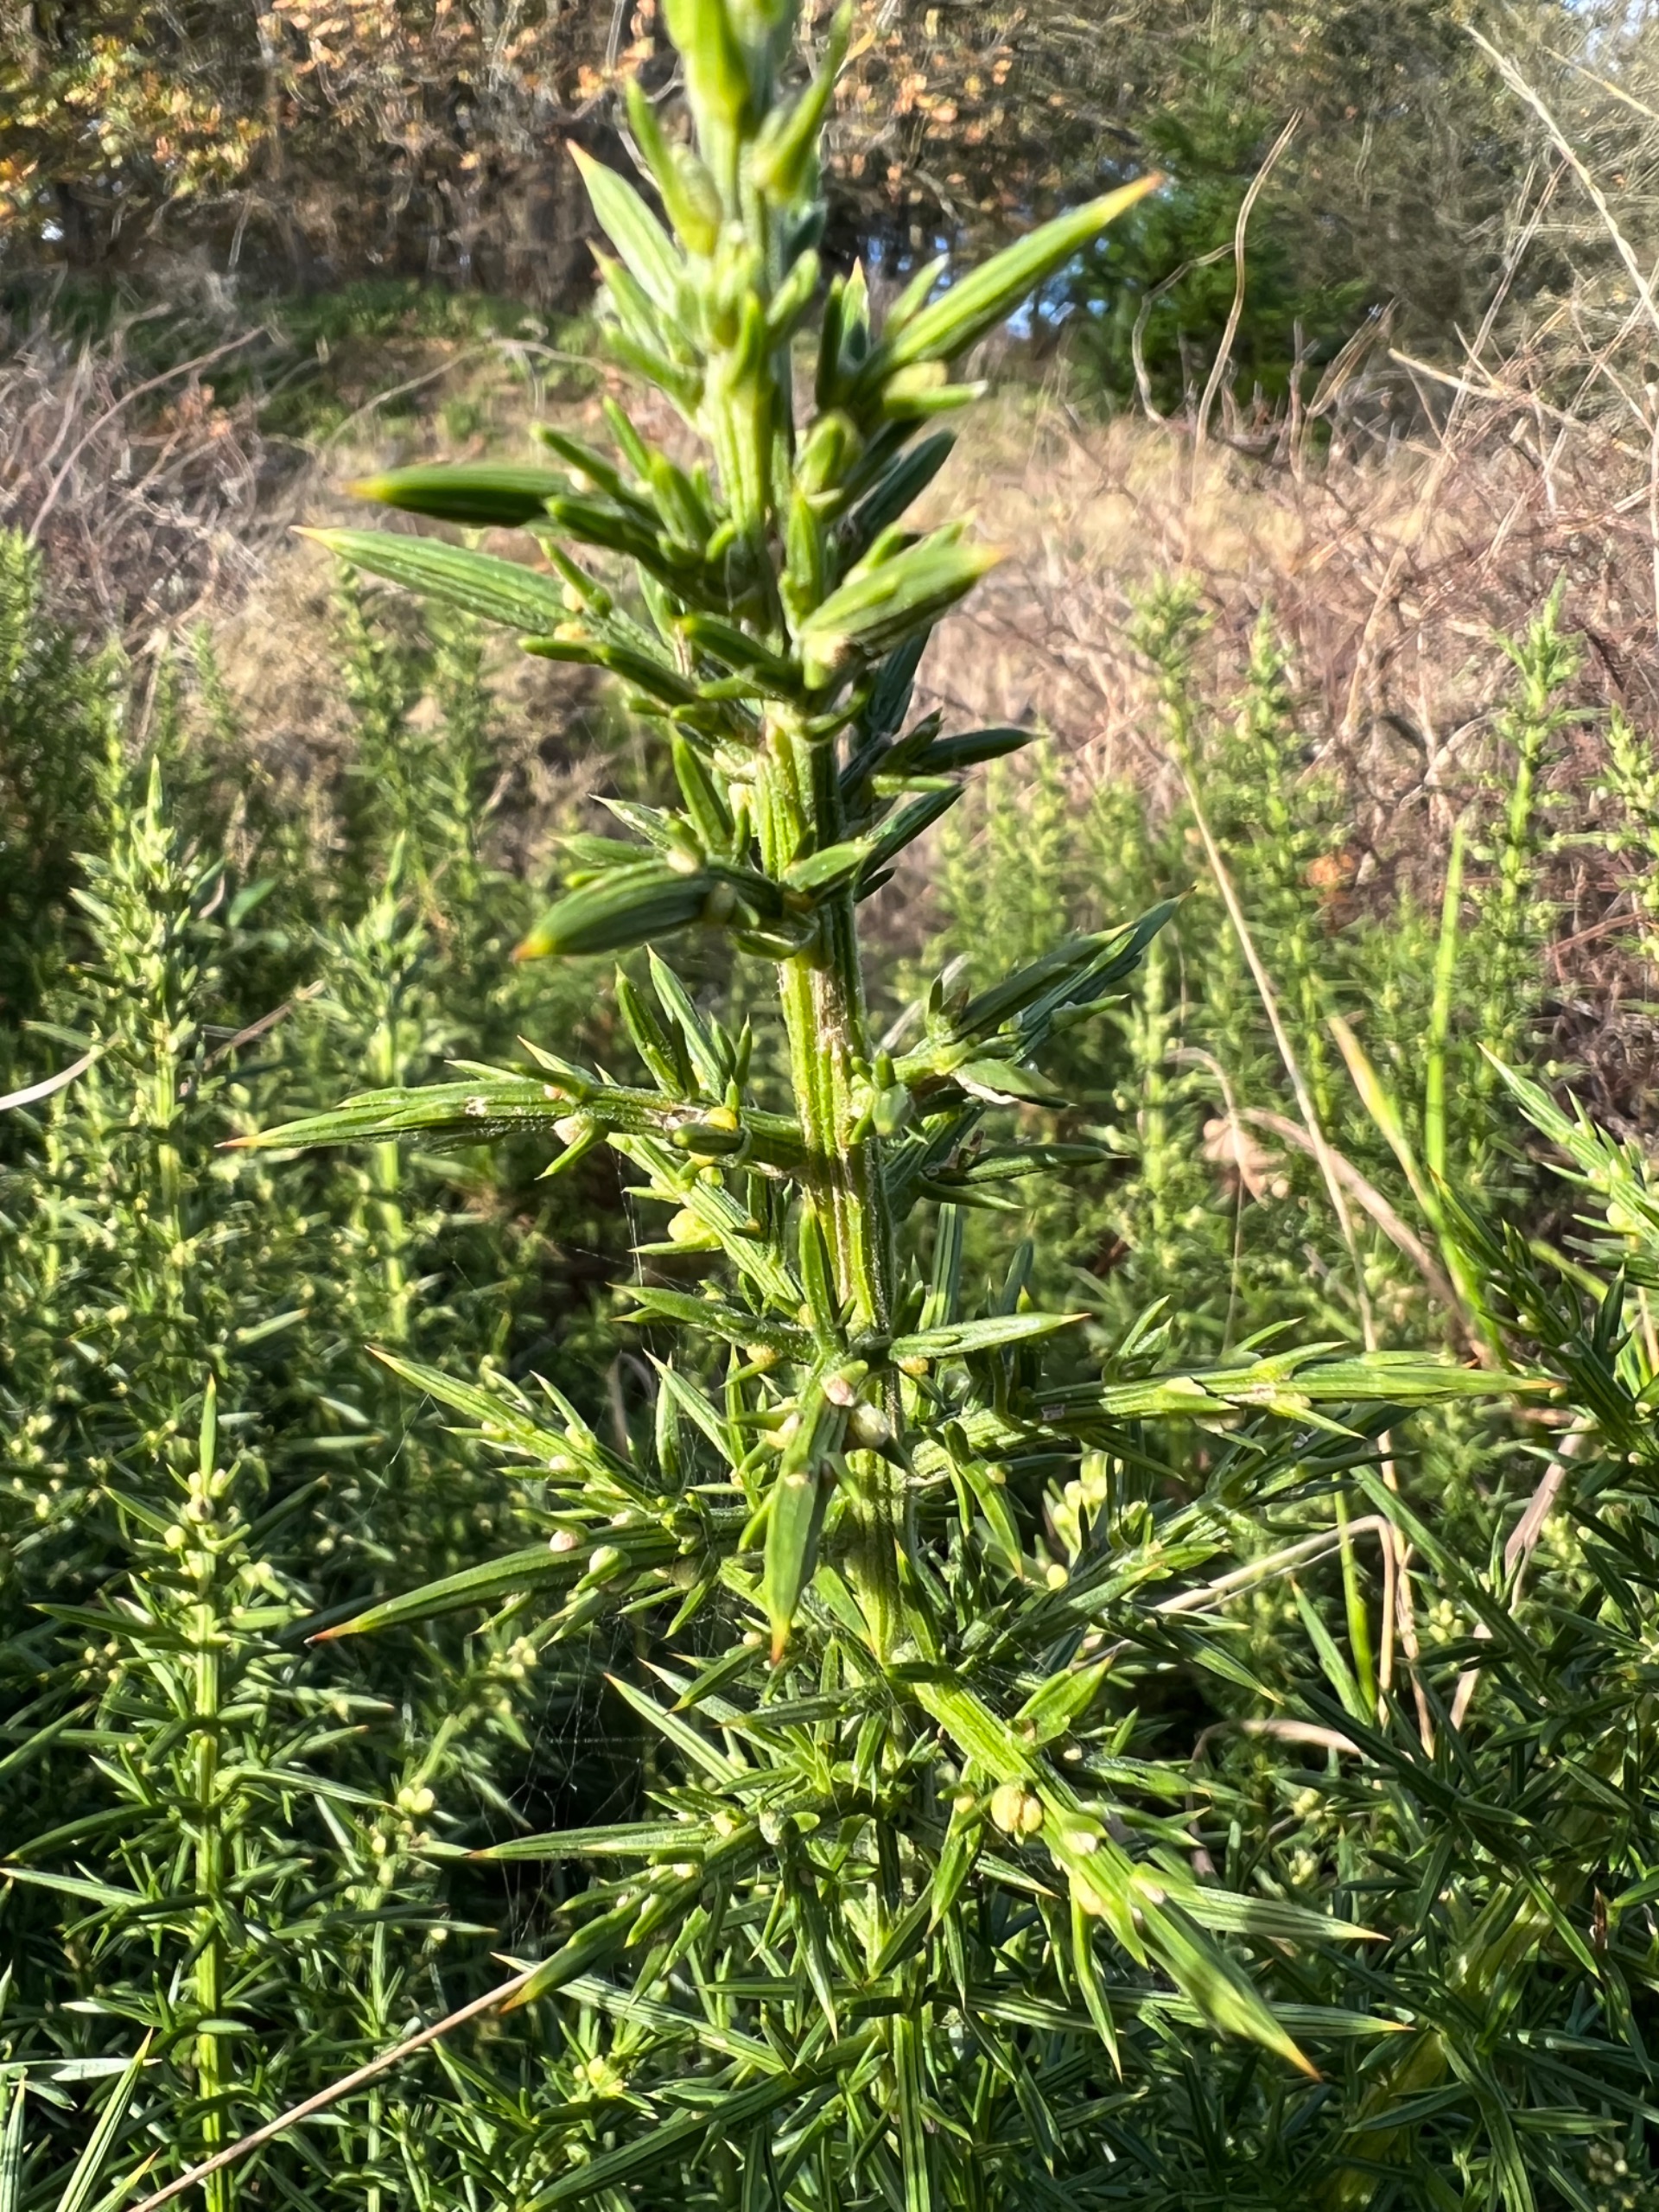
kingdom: Plantae
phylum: Tracheophyta
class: Magnoliopsida
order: Fabales
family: Fabaceae
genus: Ulex
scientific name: Ulex europaeus
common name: Tornblad
